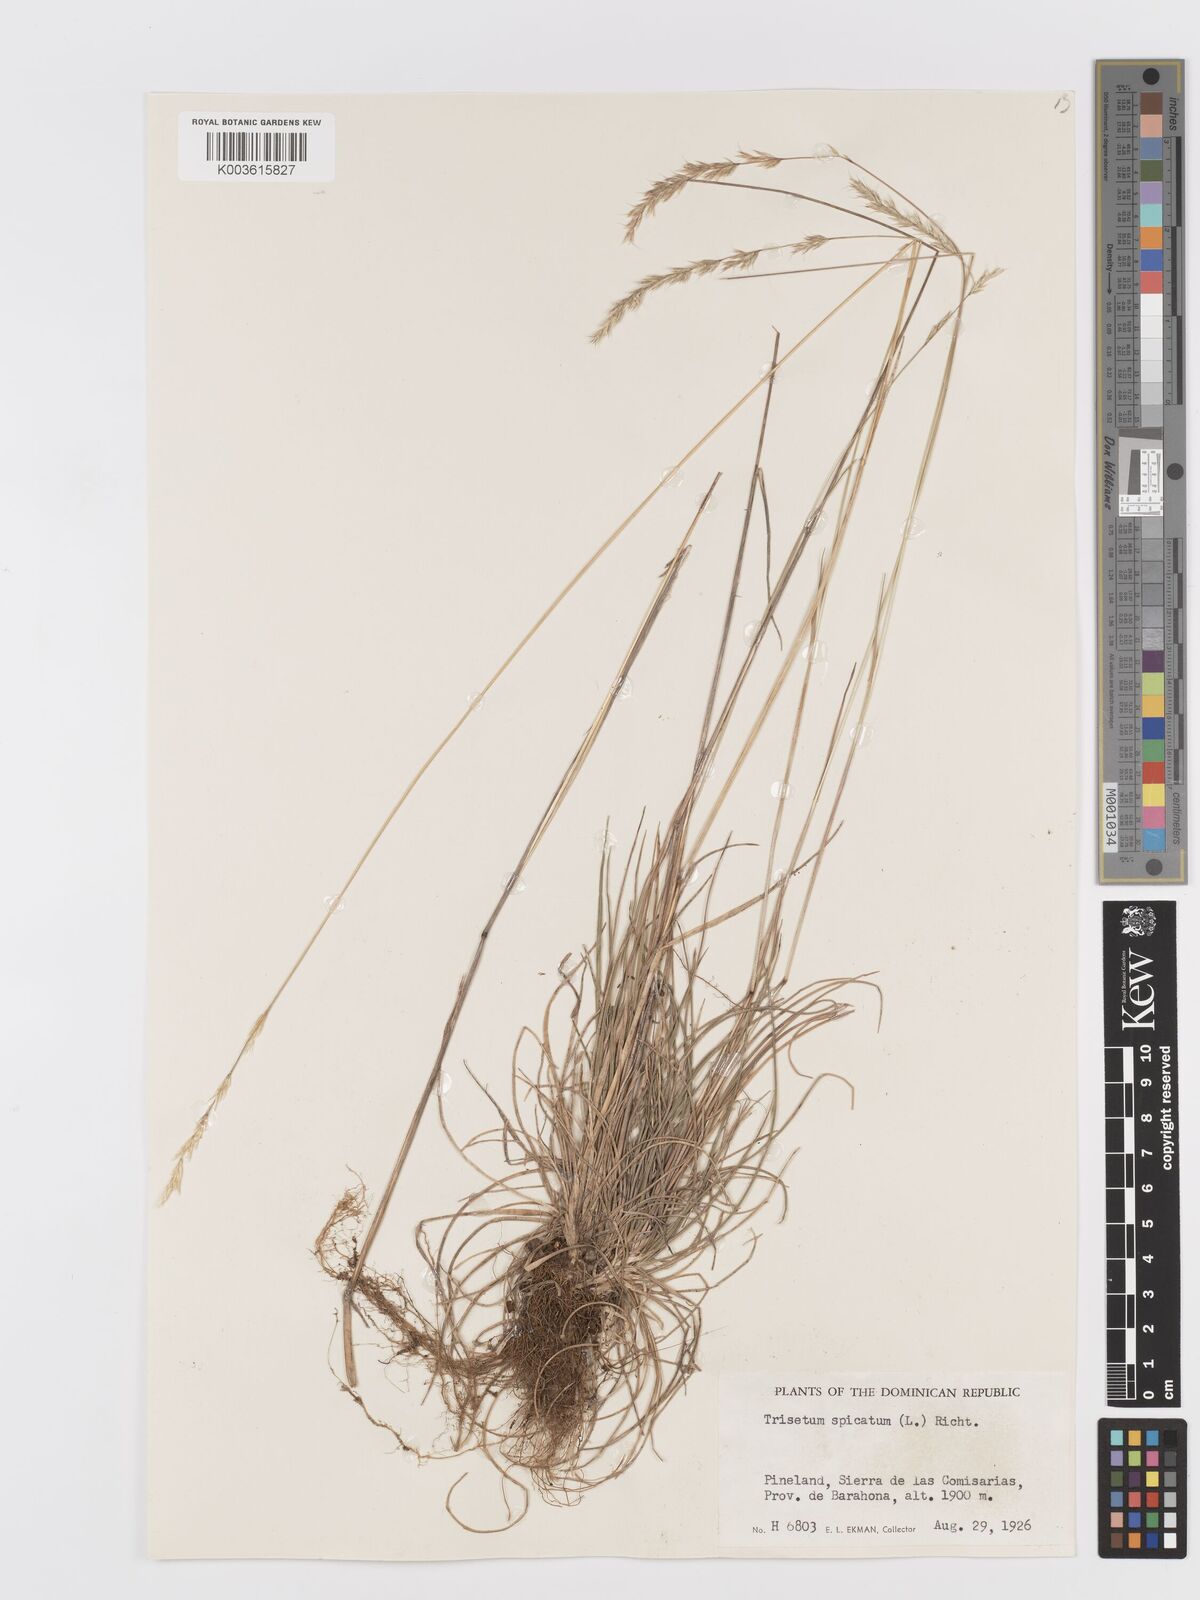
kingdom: Plantae
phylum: Tracheophyta
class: Liliopsida
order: Poales
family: Poaceae
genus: Koeleria
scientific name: Koeleria spicata
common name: Mountain trisetum
